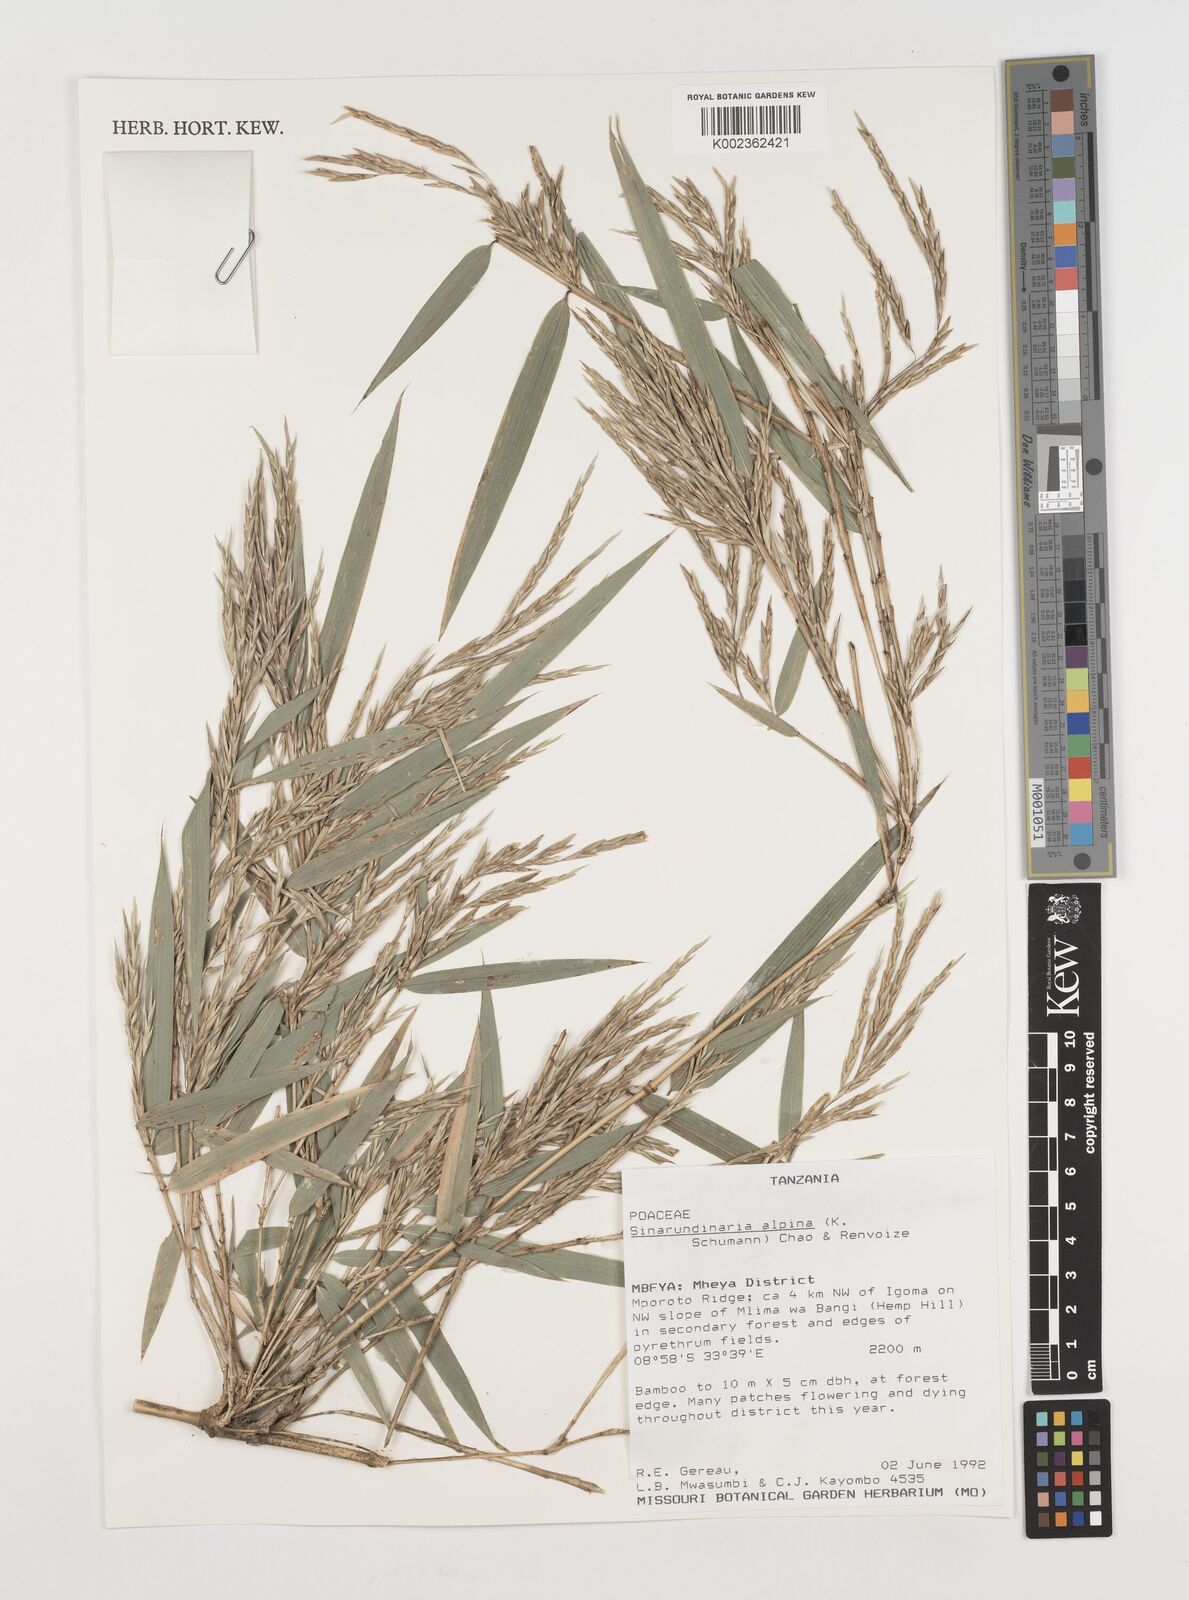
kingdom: Plantae
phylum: Tracheophyta
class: Liliopsida
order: Poales
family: Poaceae
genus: Oldeania
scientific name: Oldeania alpina
